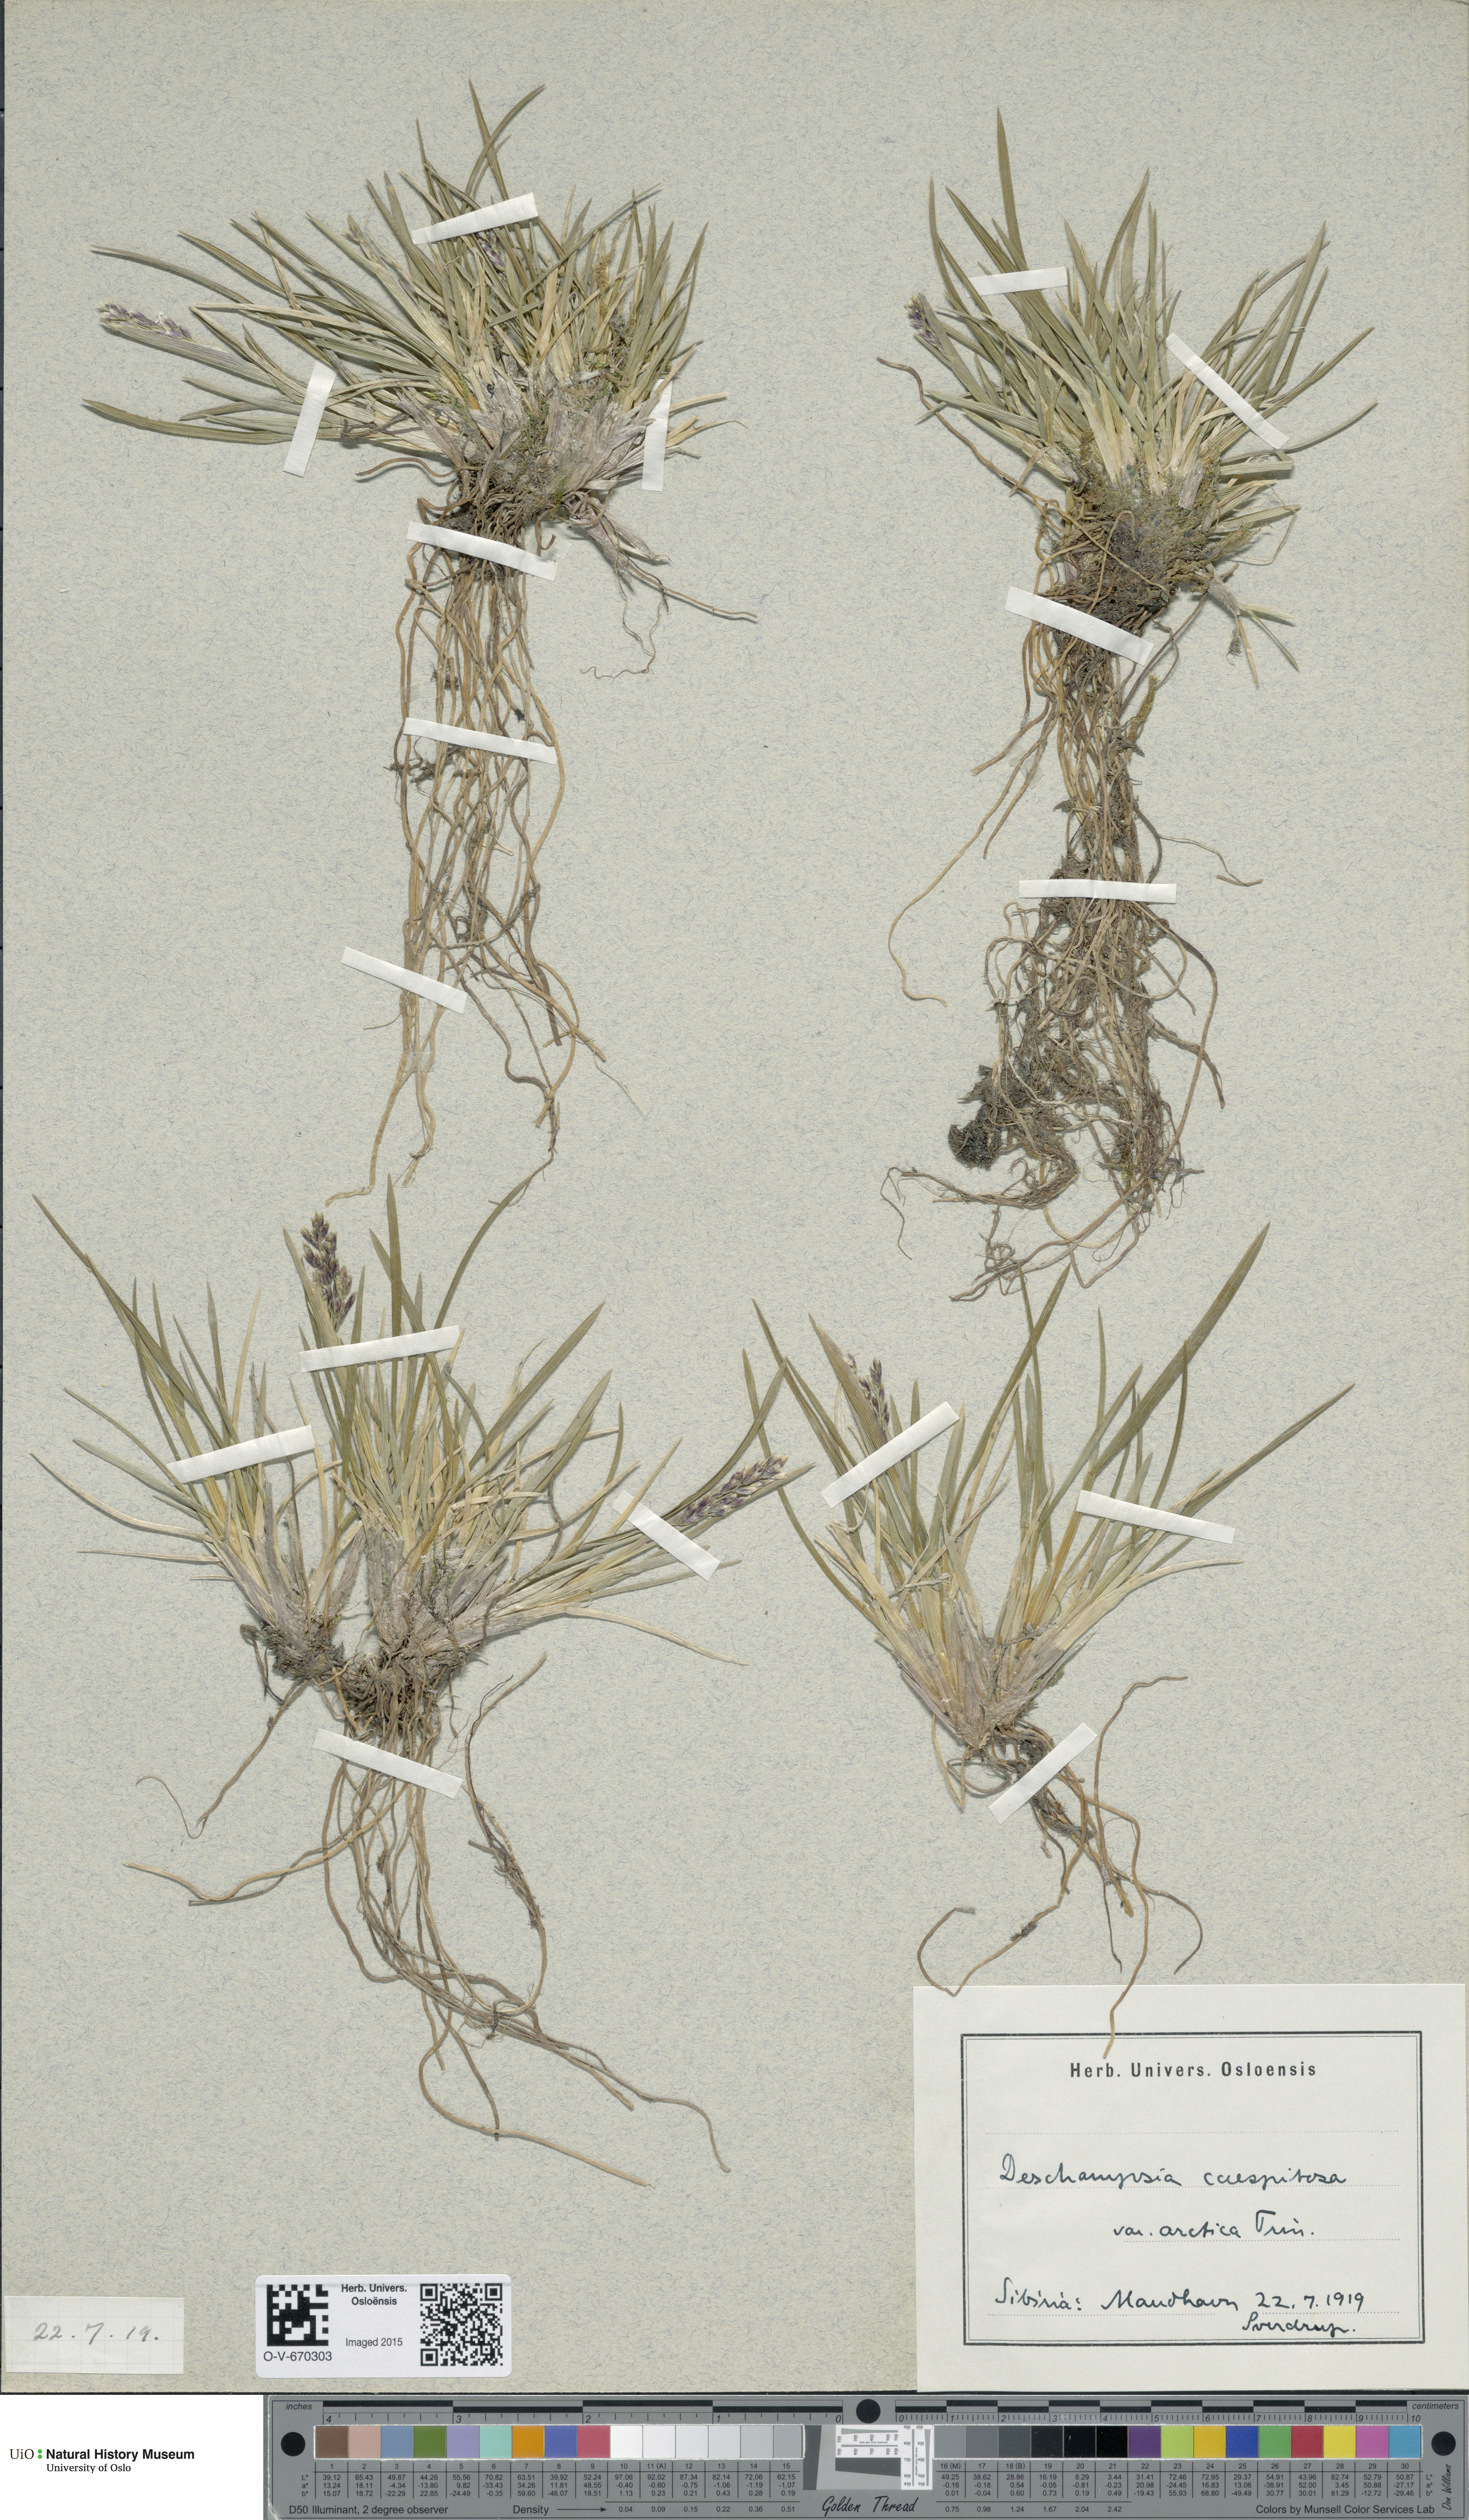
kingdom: Plantae
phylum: Tracheophyta
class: Liliopsida
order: Poales
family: Poaceae
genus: Deschampsia
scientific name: Deschampsia cespitosa
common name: Tufted hair-grass
